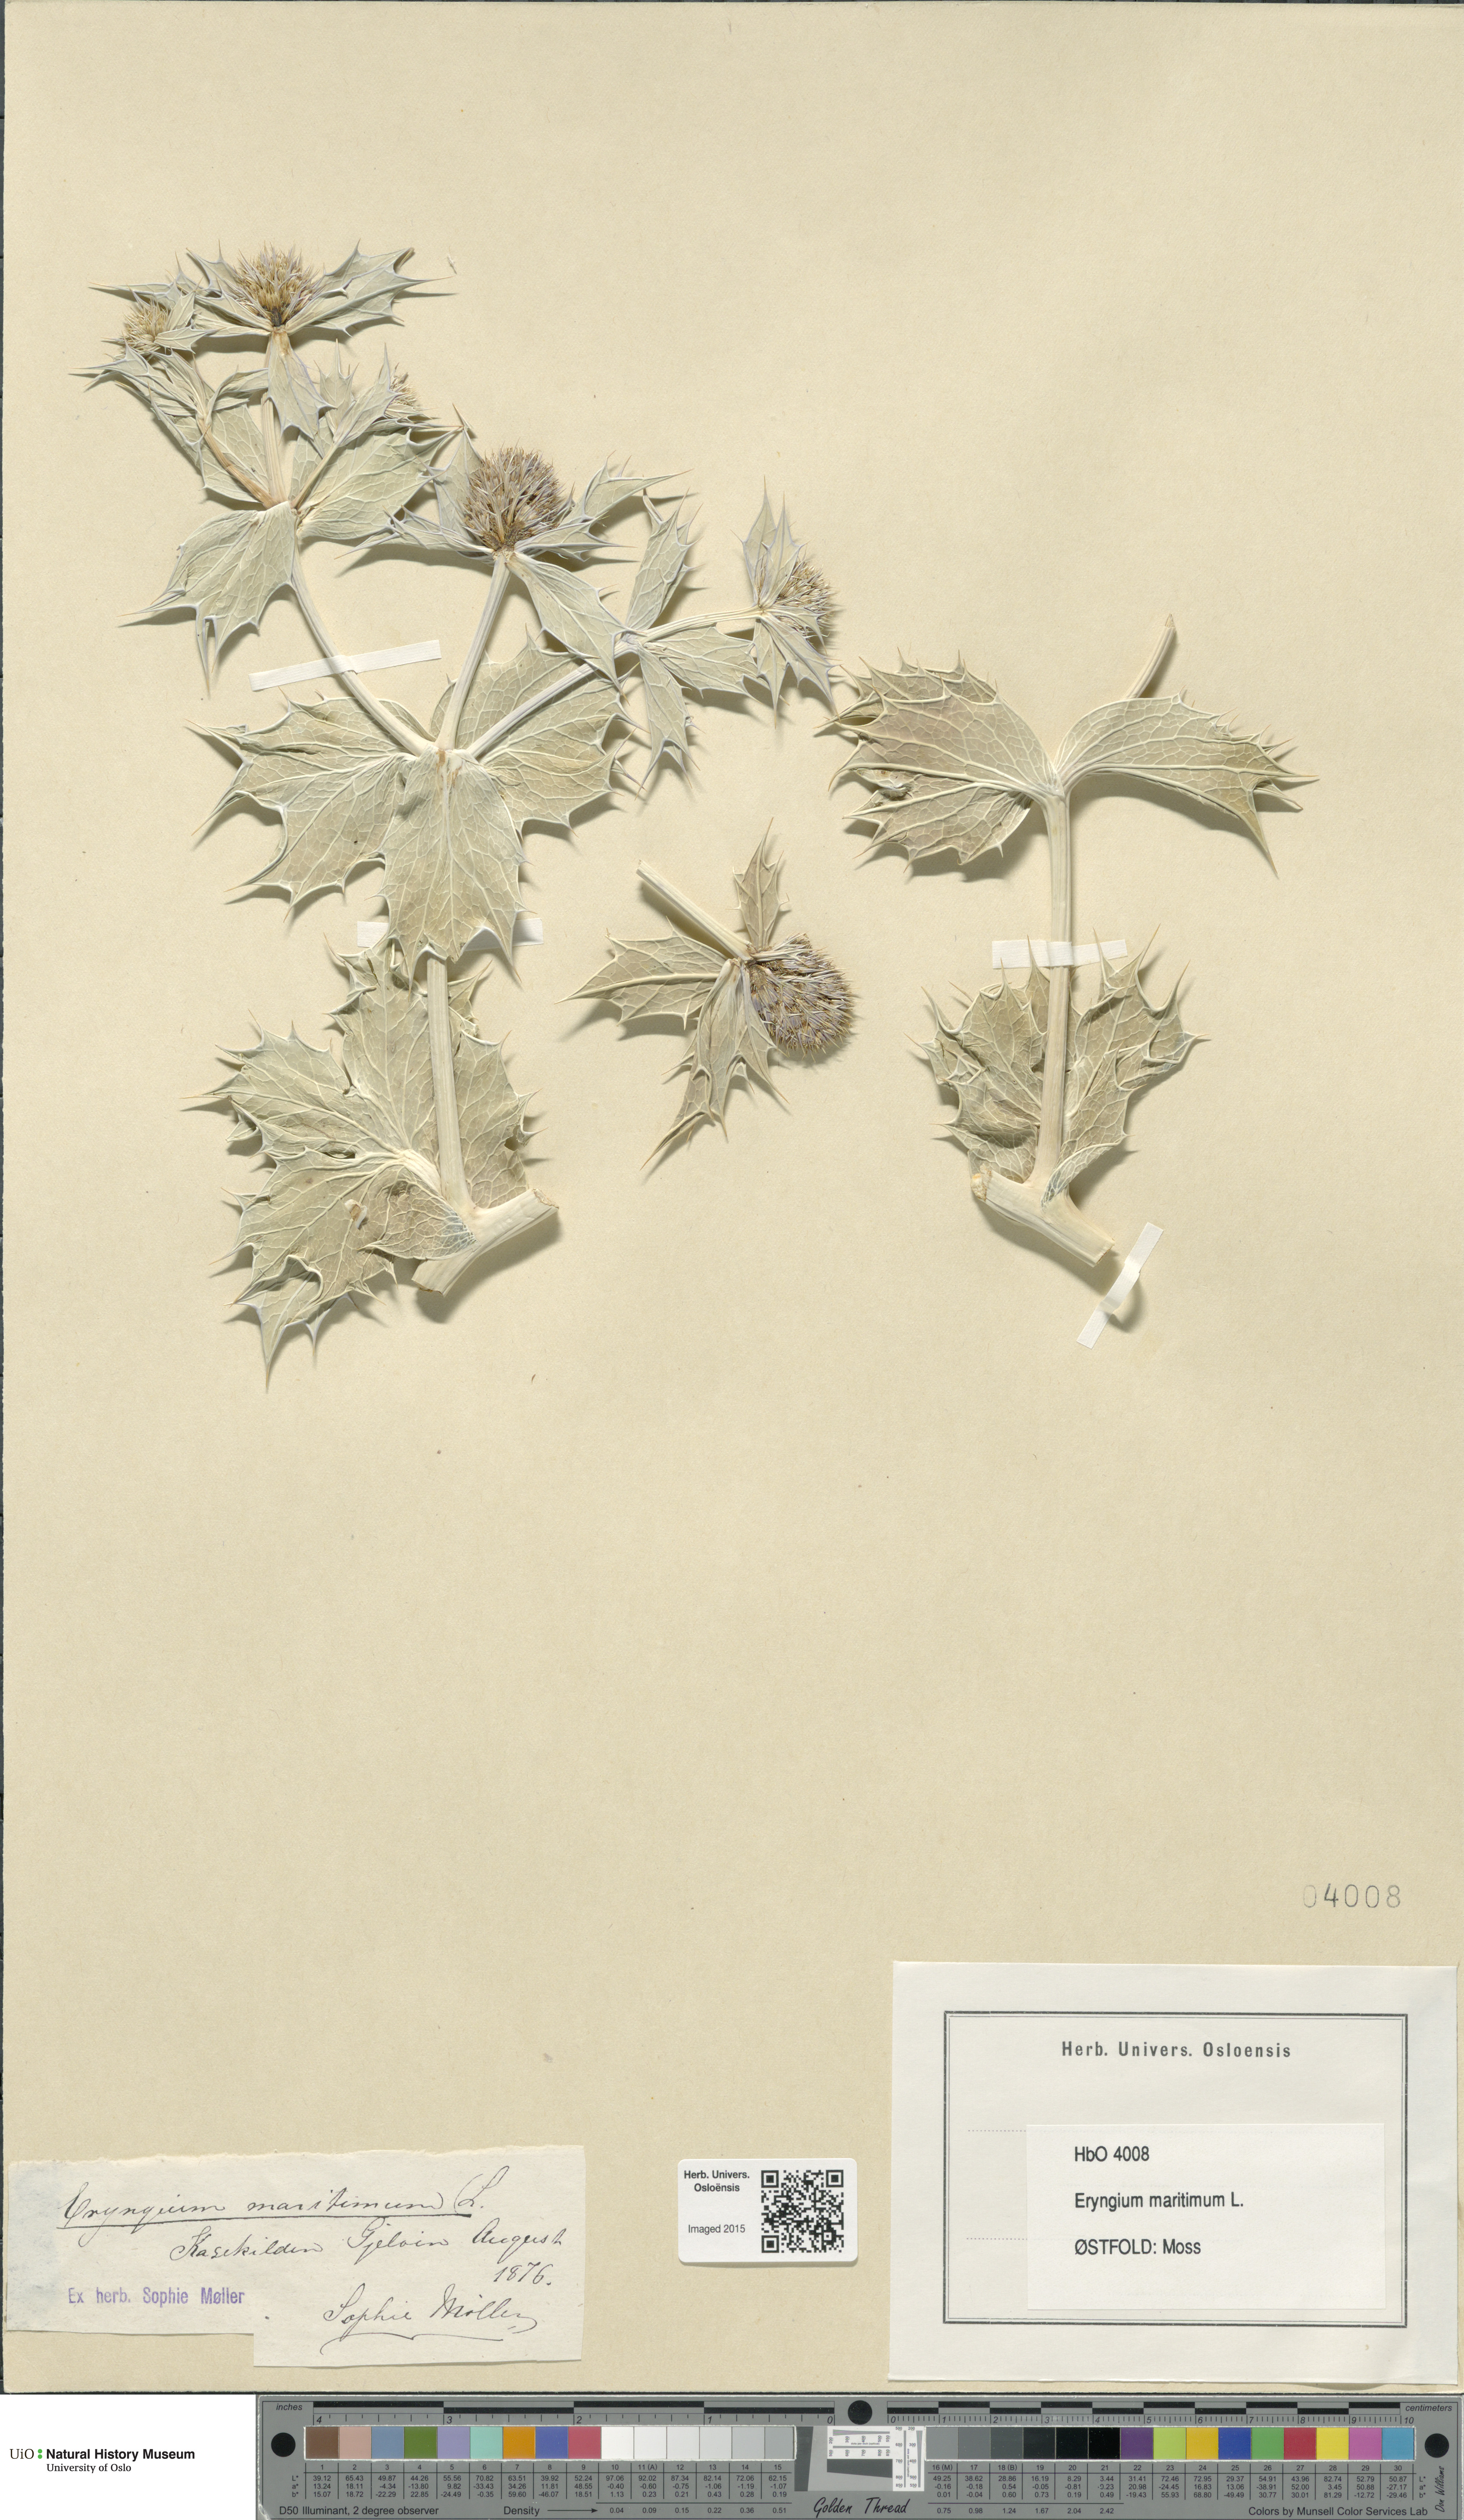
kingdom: Plantae
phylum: Tracheophyta
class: Magnoliopsida
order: Apiales
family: Apiaceae
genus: Eryngium
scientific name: Eryngium maritimum
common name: Sea-holly
